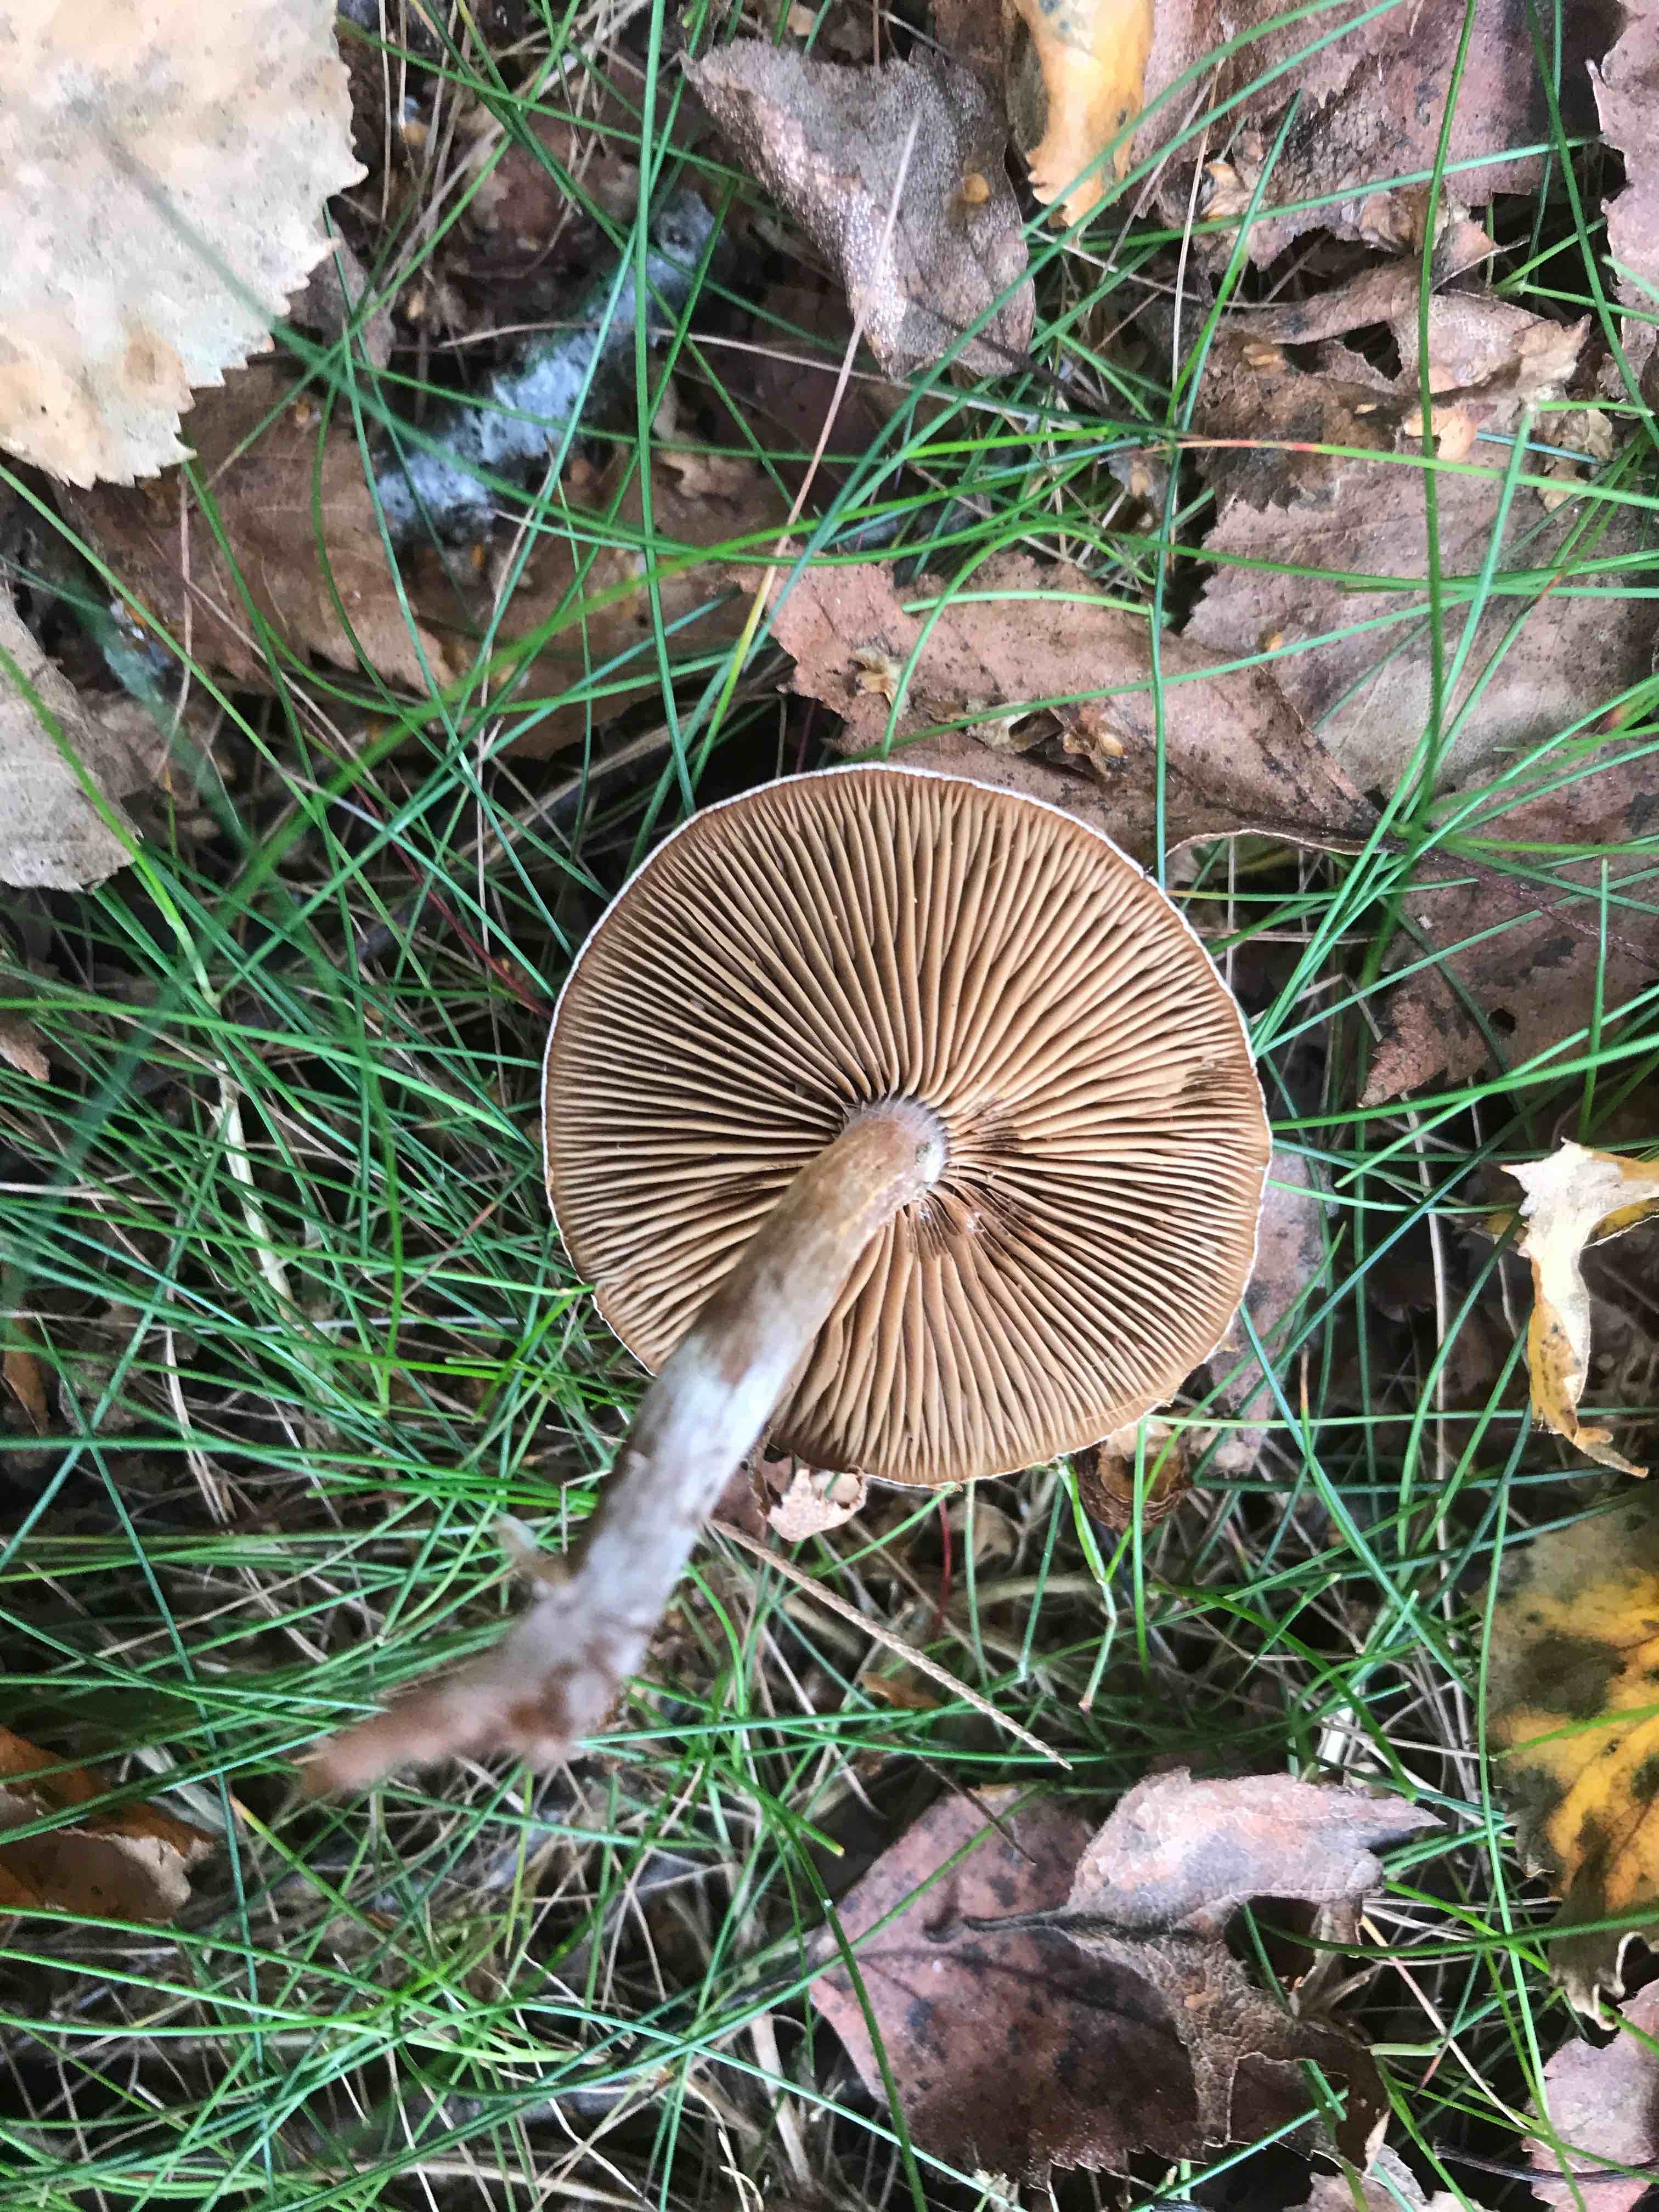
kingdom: Fungi
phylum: Basidiomycota
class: Agaricomycetes
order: Agaricales
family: Cortinariaceae
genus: Cortinarius
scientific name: Cortinarius hemitrichus
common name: hvidfnugget slørhat
